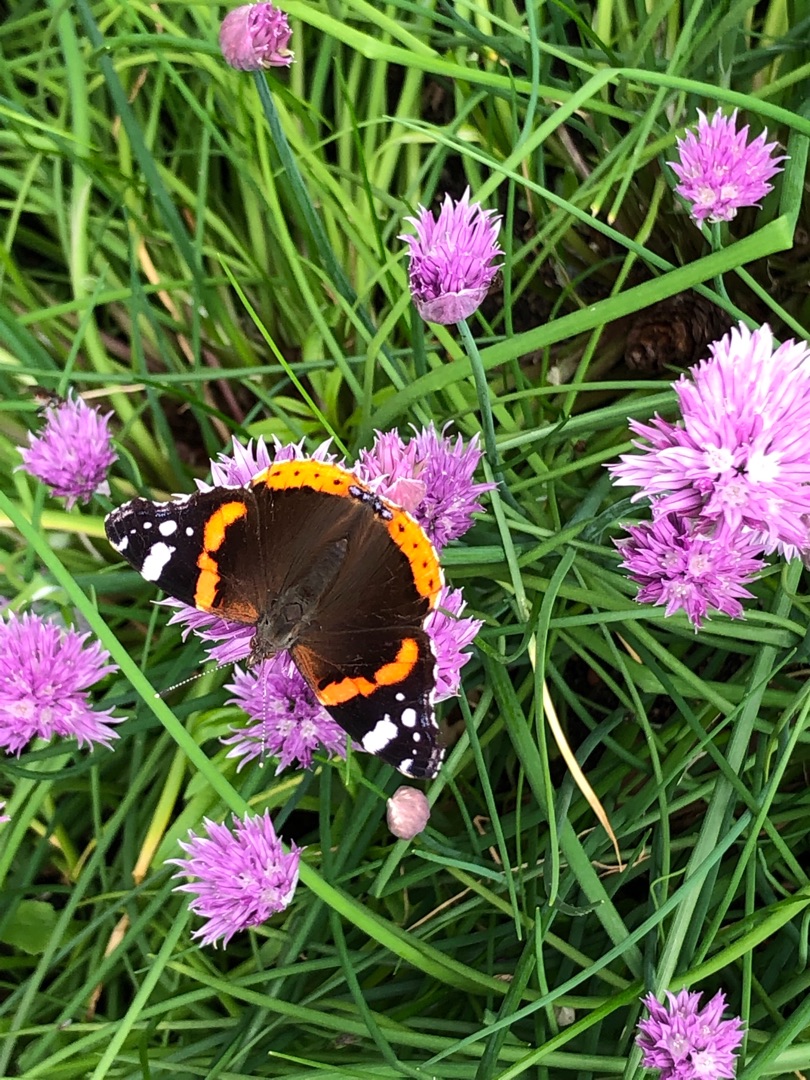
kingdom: Animalia
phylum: Arthropoda
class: Insecta
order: Lepidoptera
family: Nymphalidae
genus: Vanessa
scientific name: Vanessa atalanta
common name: Admiral
